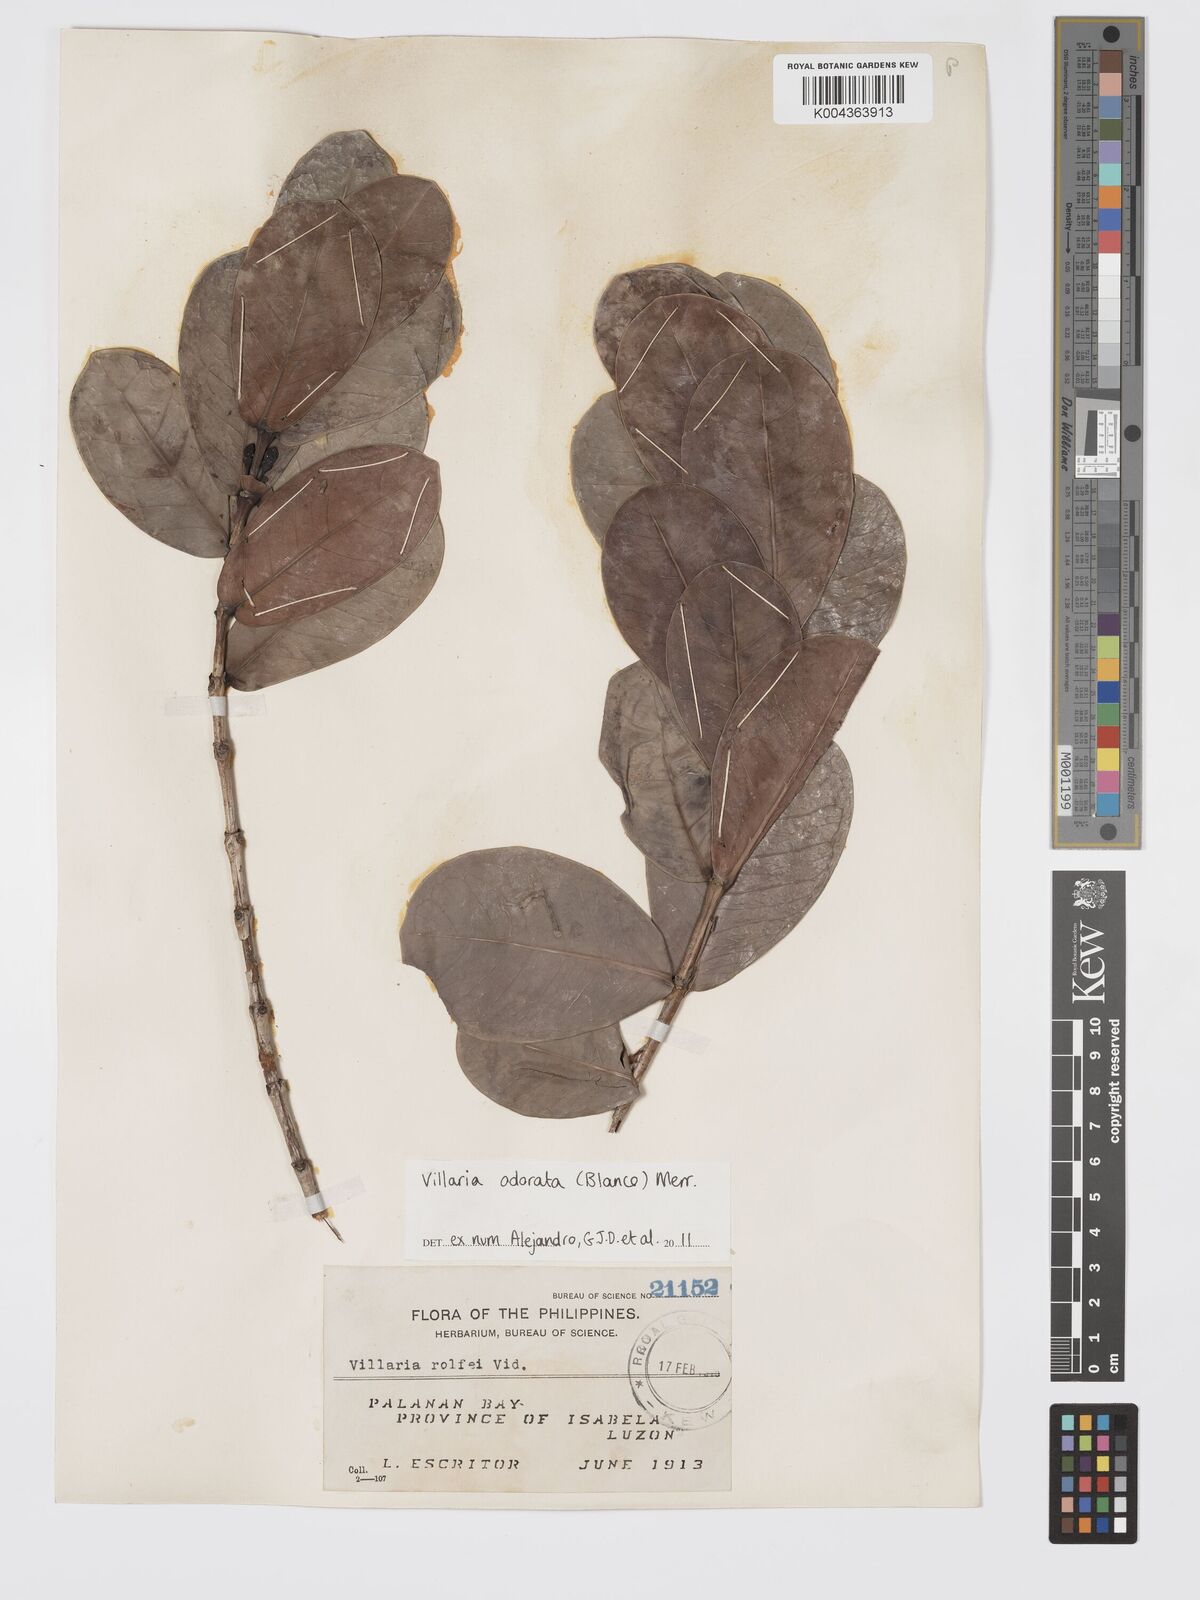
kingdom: Plantae
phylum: Tracheophyta
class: Magnoliopsida
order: Gentianales
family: Rubiaceae
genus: Villaria
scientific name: Villaria odorata
